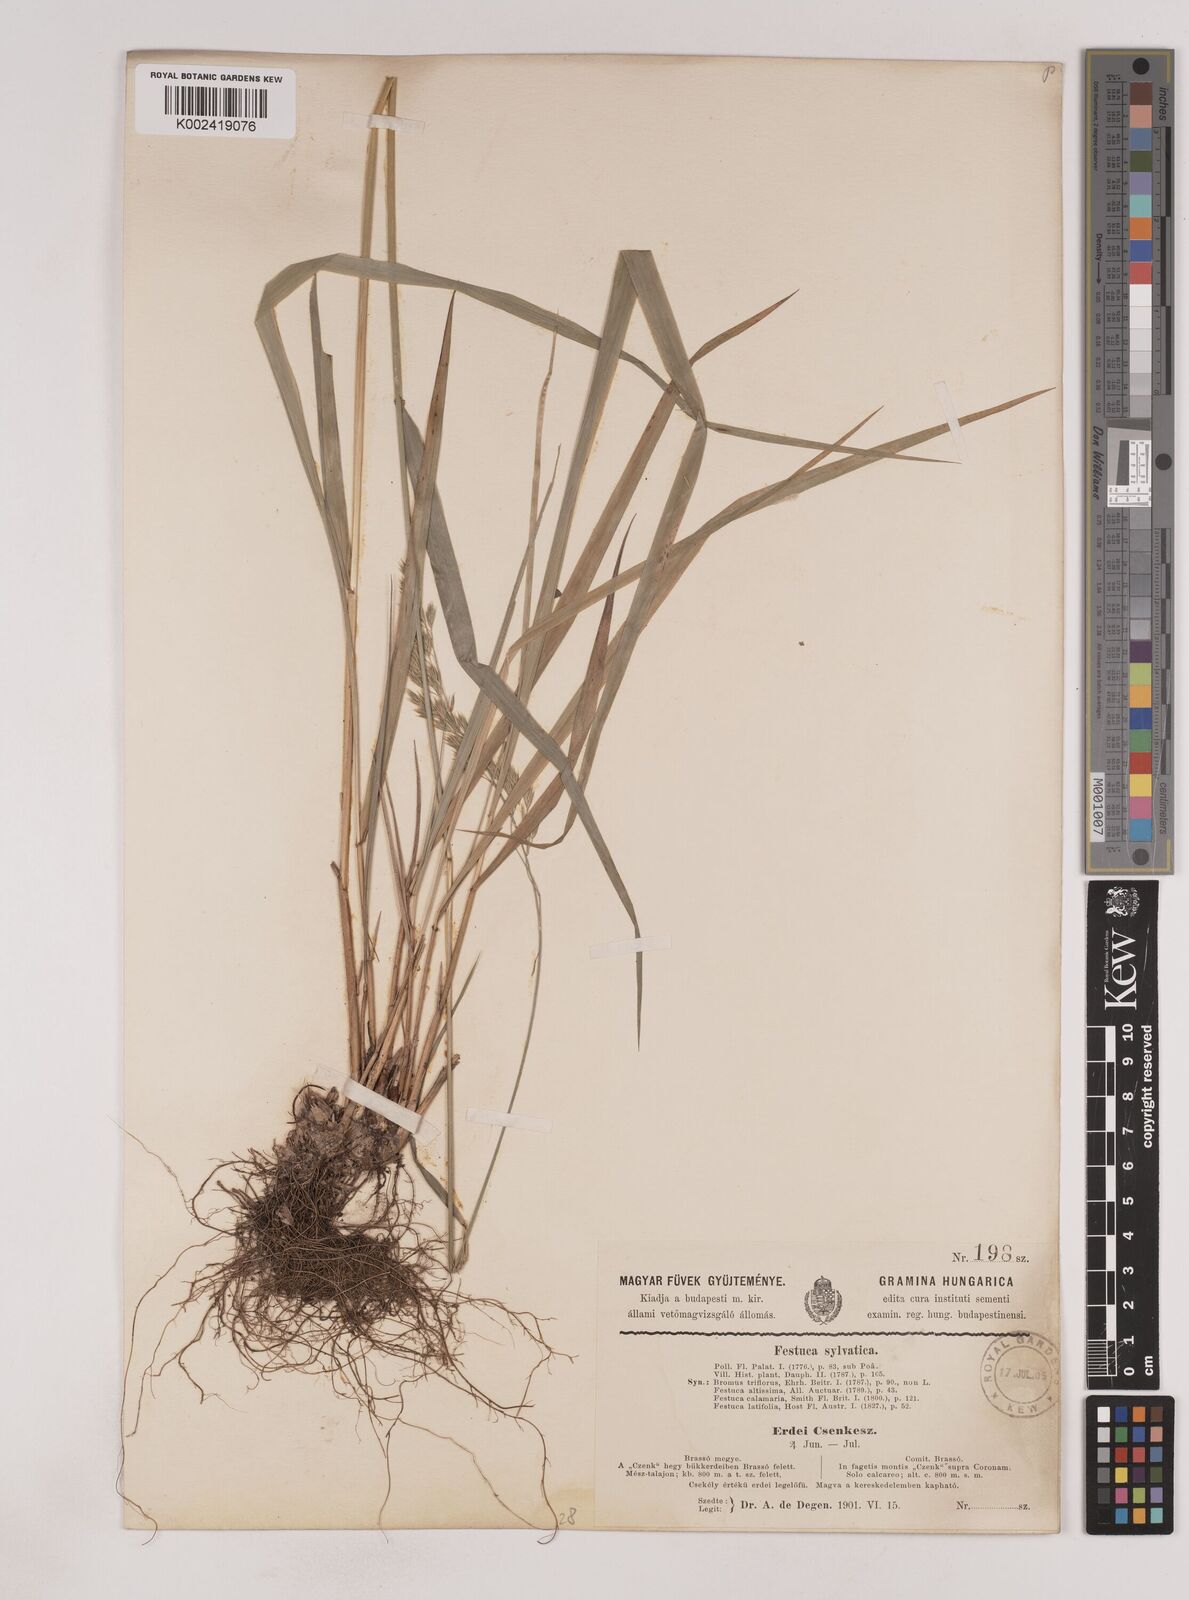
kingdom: Plantae
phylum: Tracheophyta
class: Liliopsida
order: Poales
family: Poaceae
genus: Festuca
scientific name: Festuca drymeja
